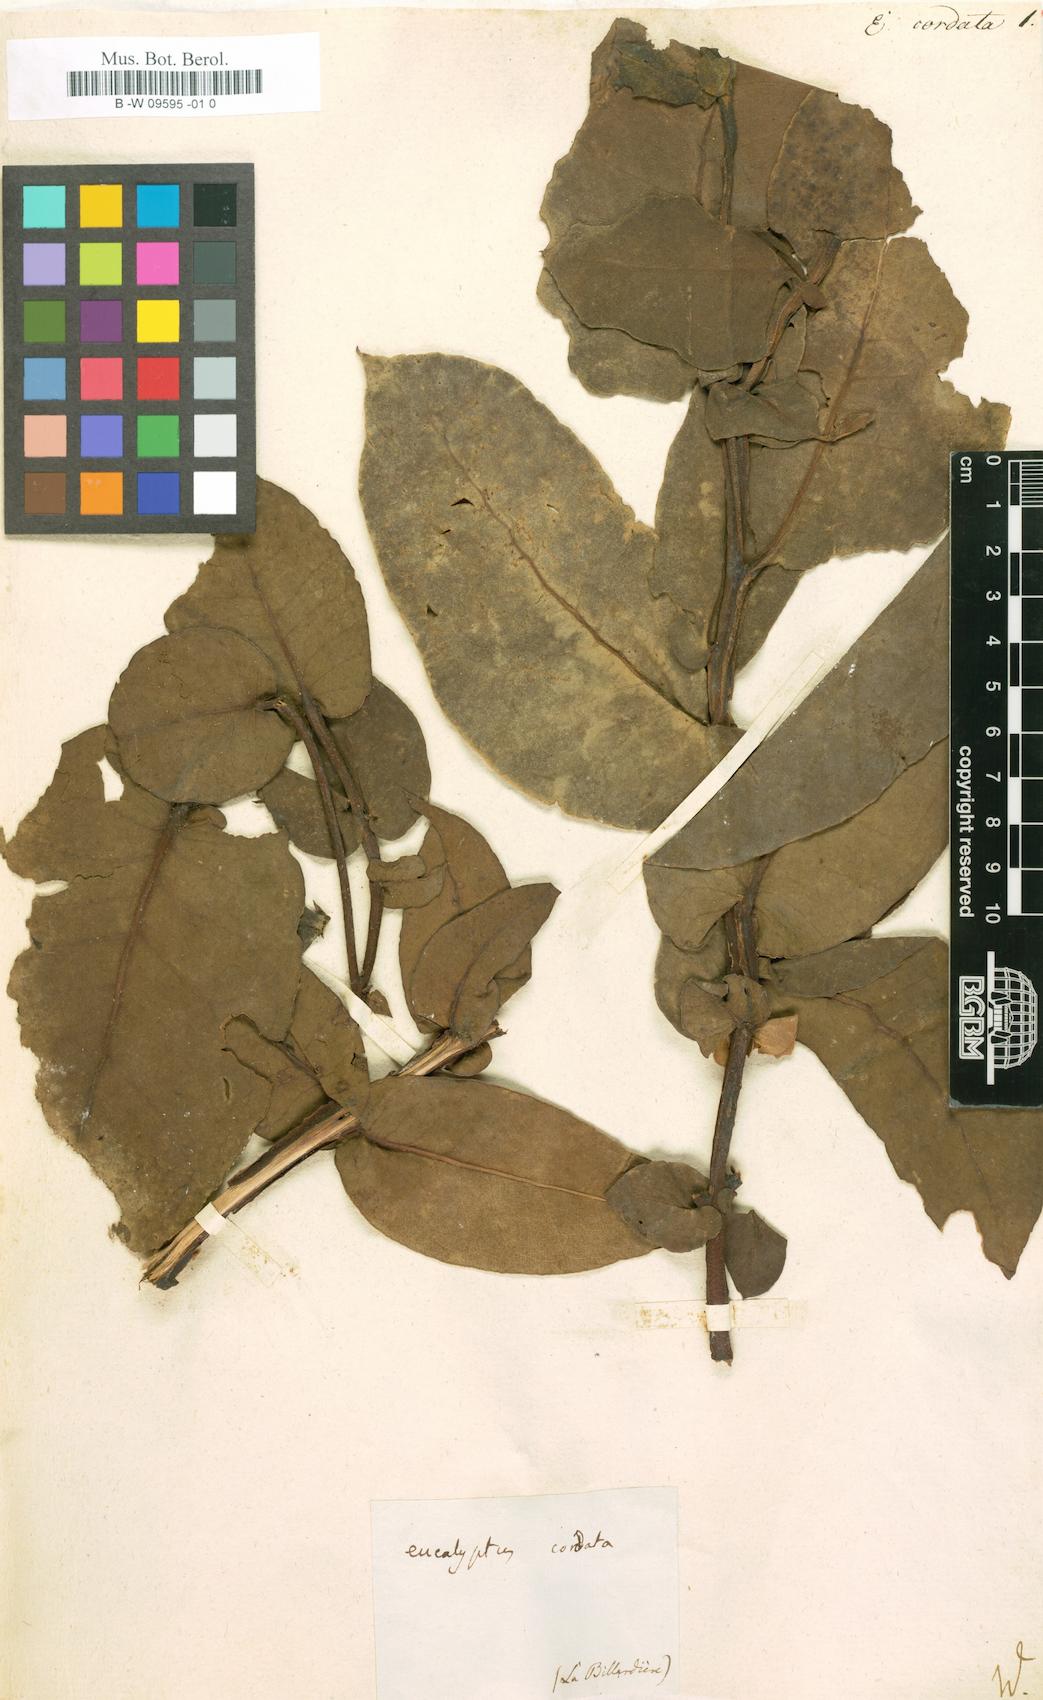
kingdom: Plantae
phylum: Tracheophyta
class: Magnoliopsida
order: Myrtales
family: Myrtaceae
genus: Eucalyptus
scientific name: Eucalyptus cordata
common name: Heart-leaf silver gum
